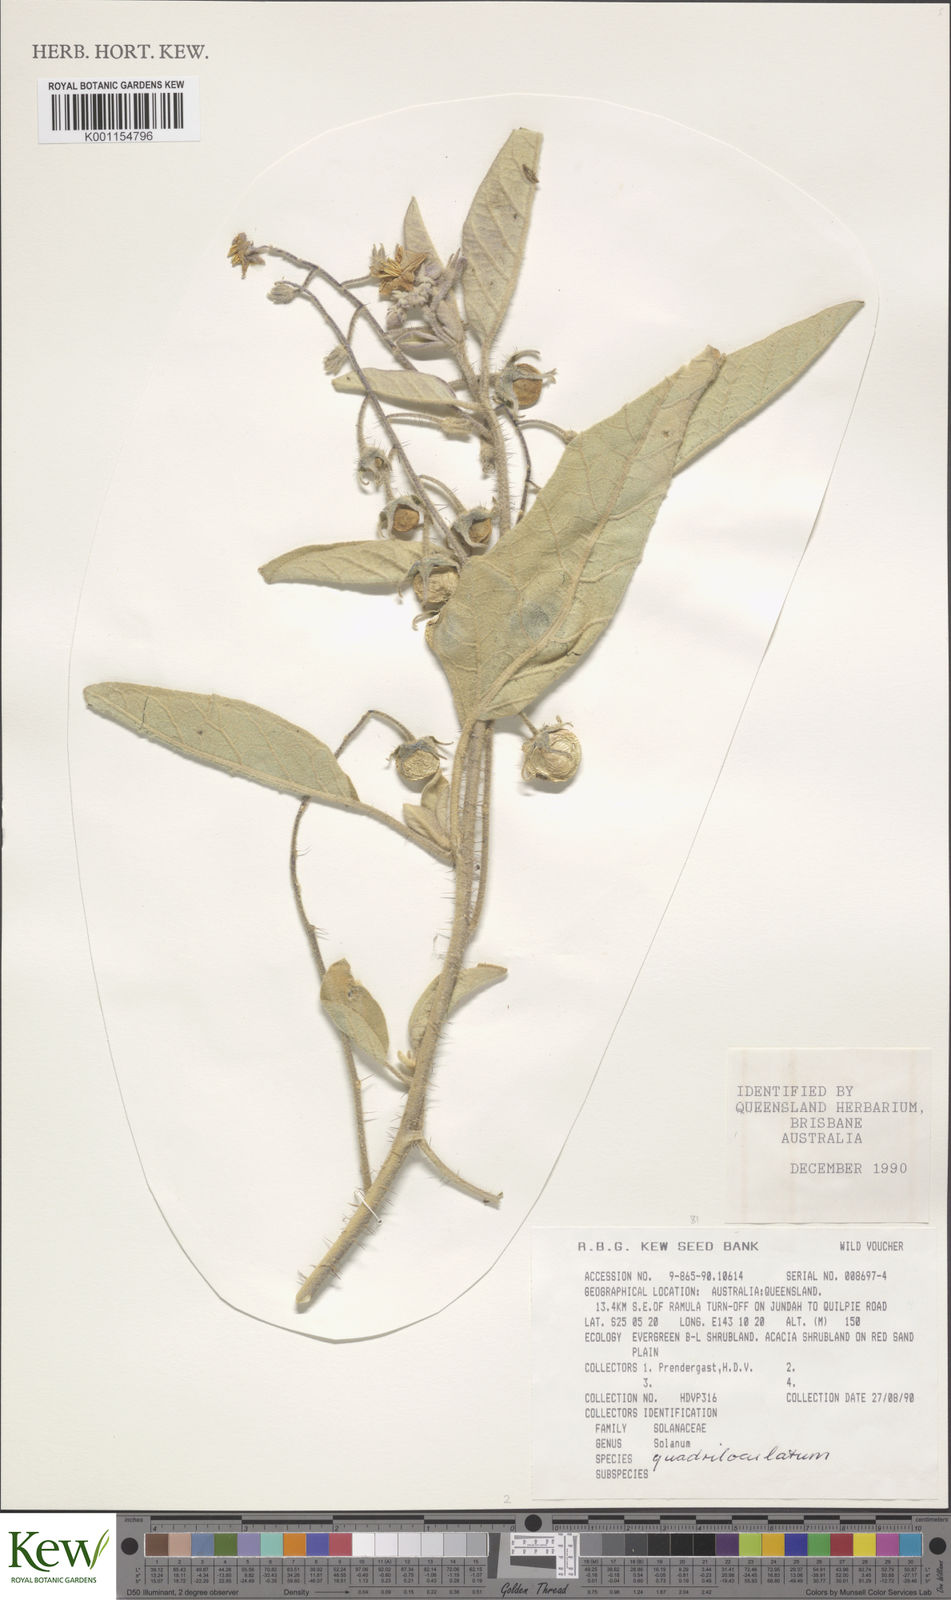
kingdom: Plantae
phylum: Tracheophyta
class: Magnoliopsida
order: Solanales
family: Solanaceae
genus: Solanum
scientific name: Solanum quadriloculatum
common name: Wild tomato
